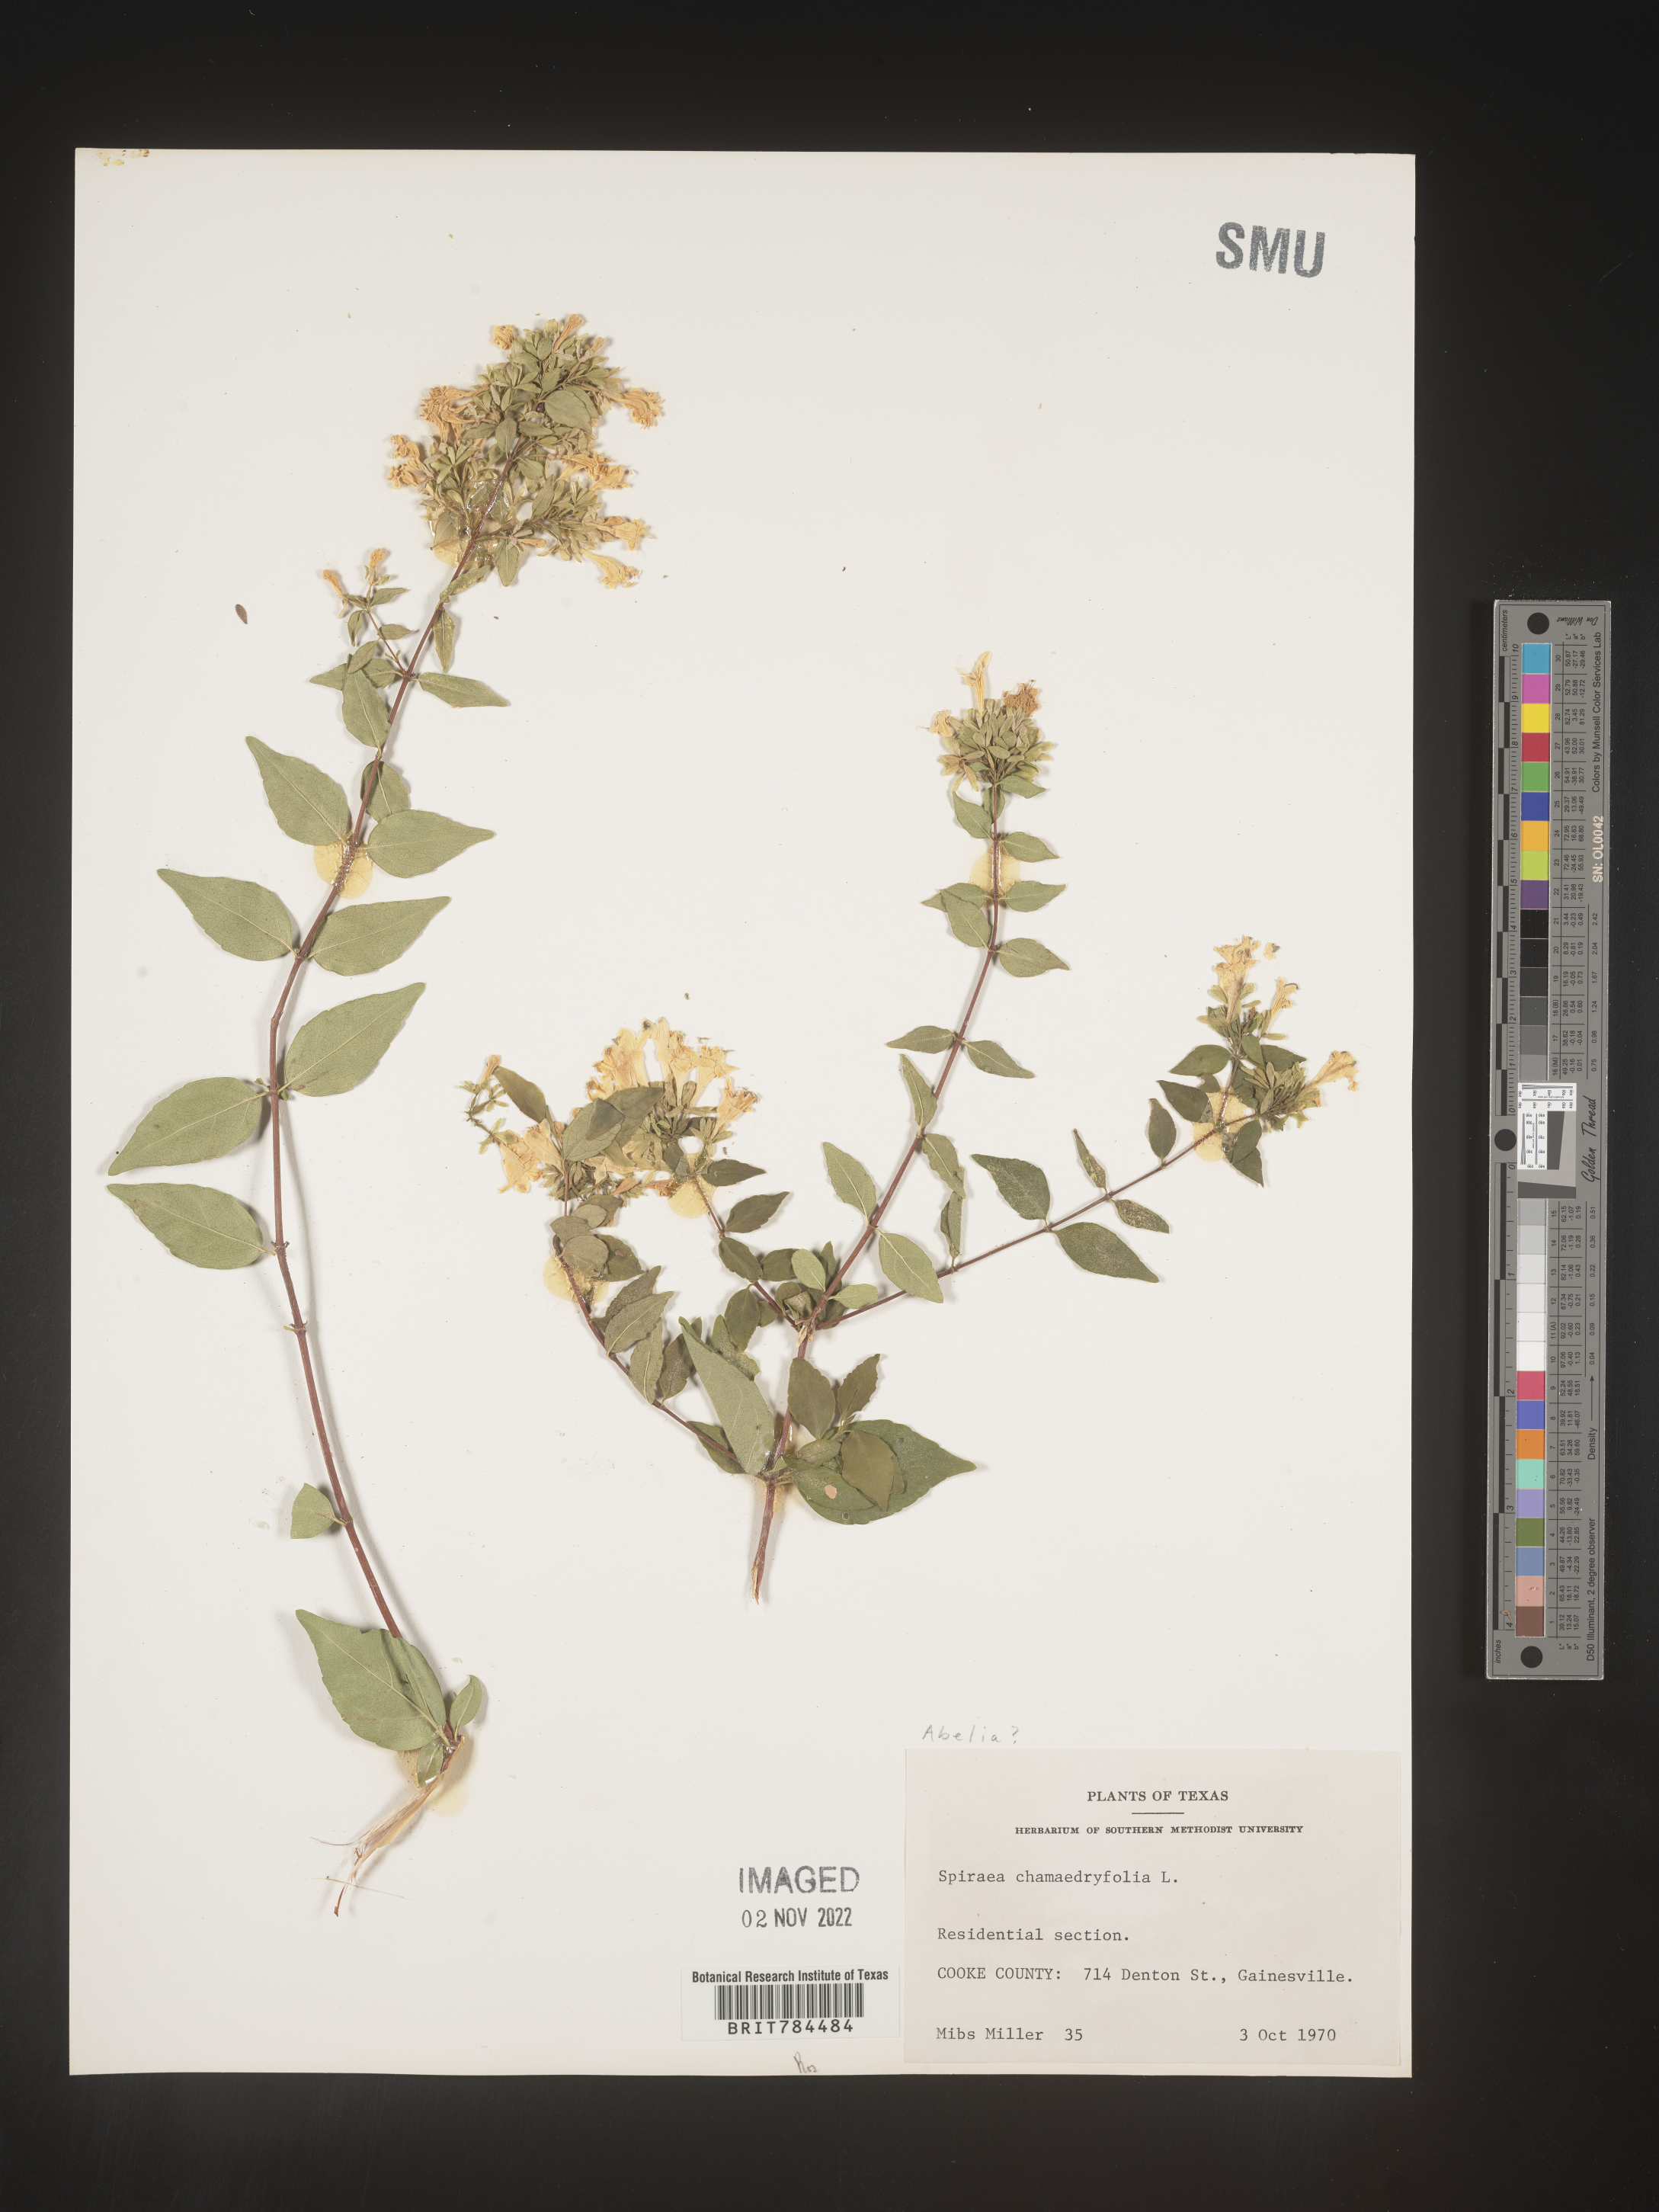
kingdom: Plantae
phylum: Tracheophyta
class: Magnoliopsida
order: Dipsacales
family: Caprifoliaceae
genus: Abelia
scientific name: Abelia
